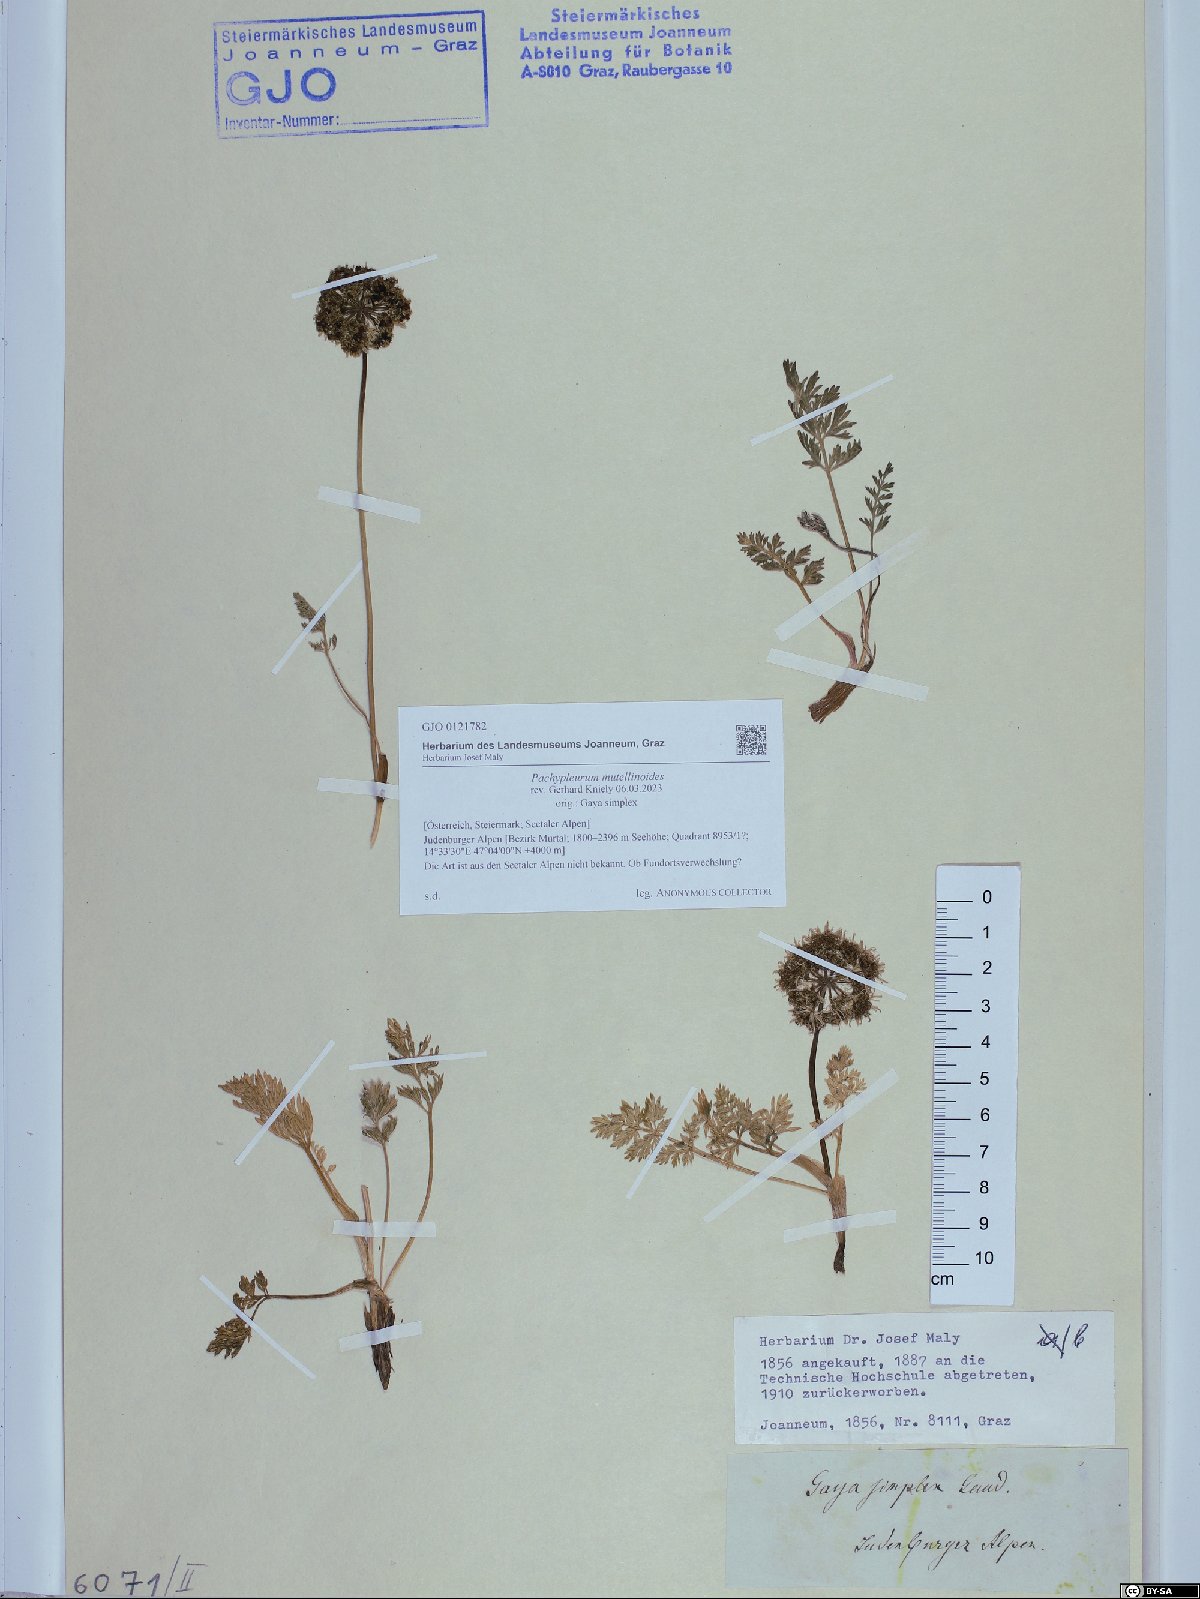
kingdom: Plantae
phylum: Tracheophyta
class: Magnoliopsida
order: Apiales
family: Apiaceae
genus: Pachypleurum
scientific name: Pachypleurum mutellinoides
